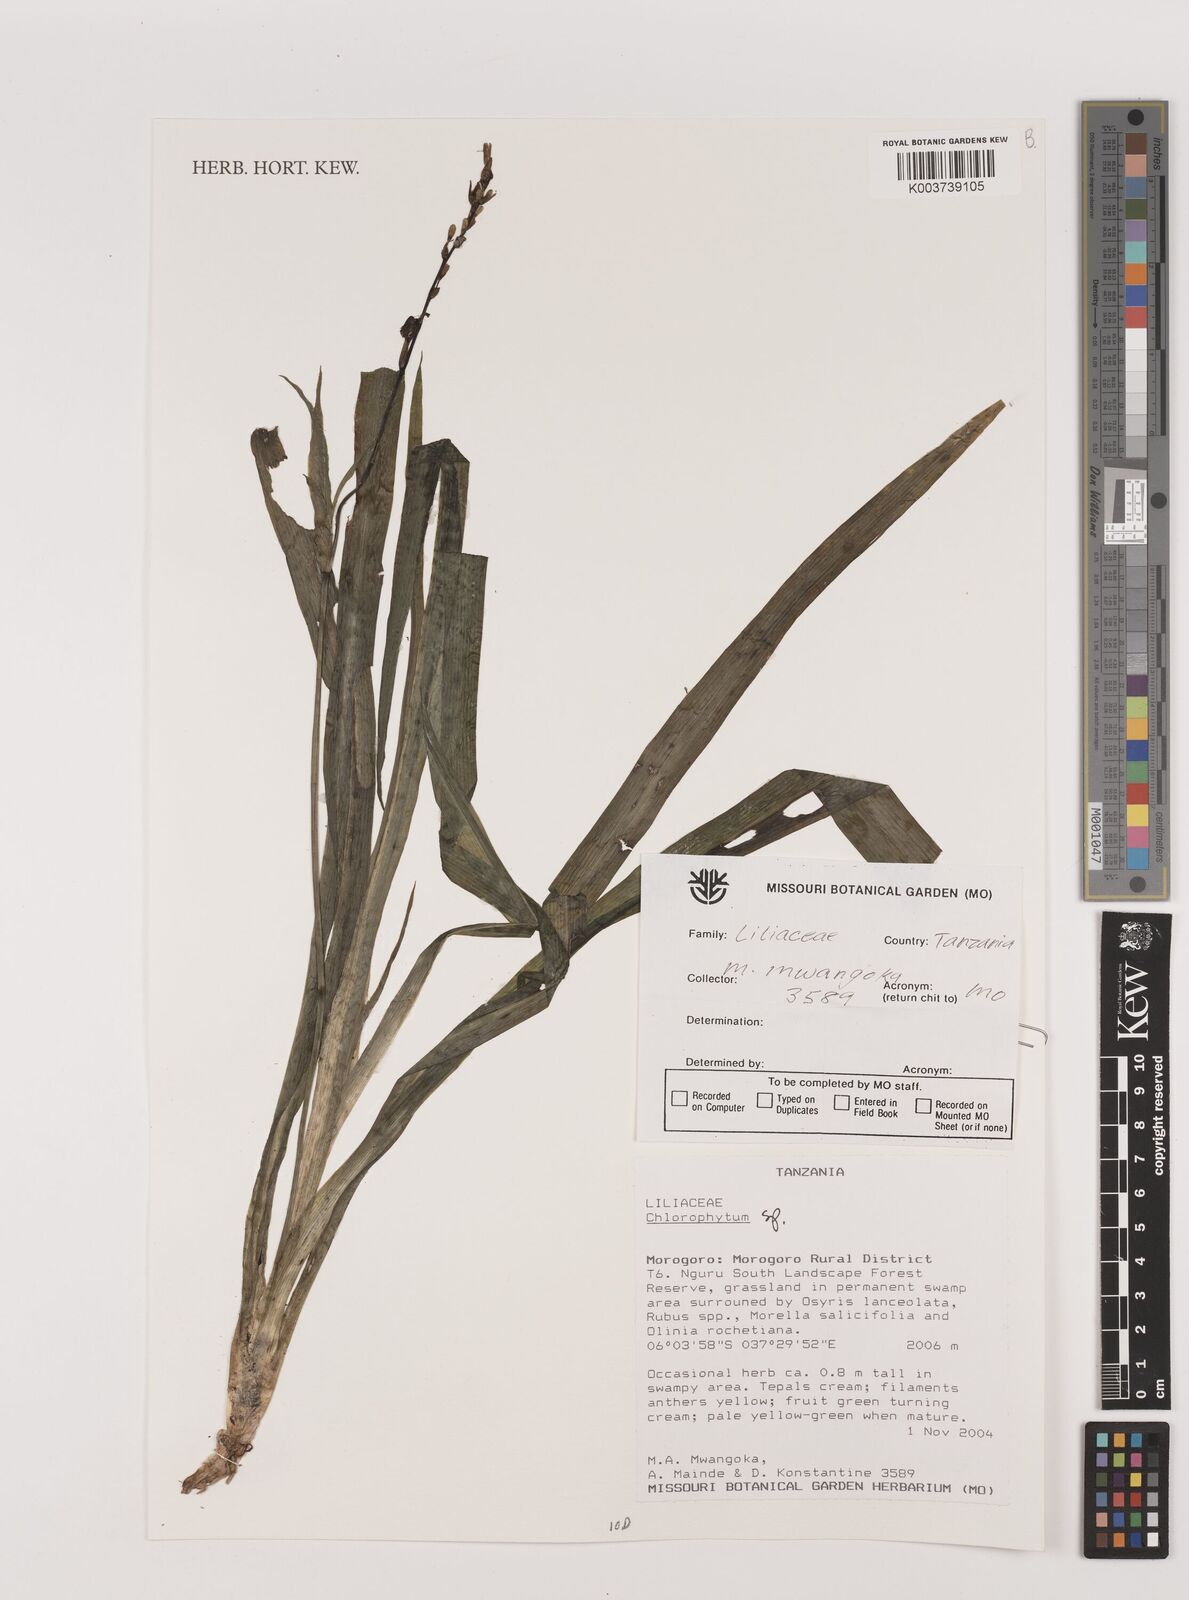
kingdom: Plantae
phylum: Tracheophyta
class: Liliopsida
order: Asparagales
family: Asparagaceae
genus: Chlorophytum
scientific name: Chlorophytum
